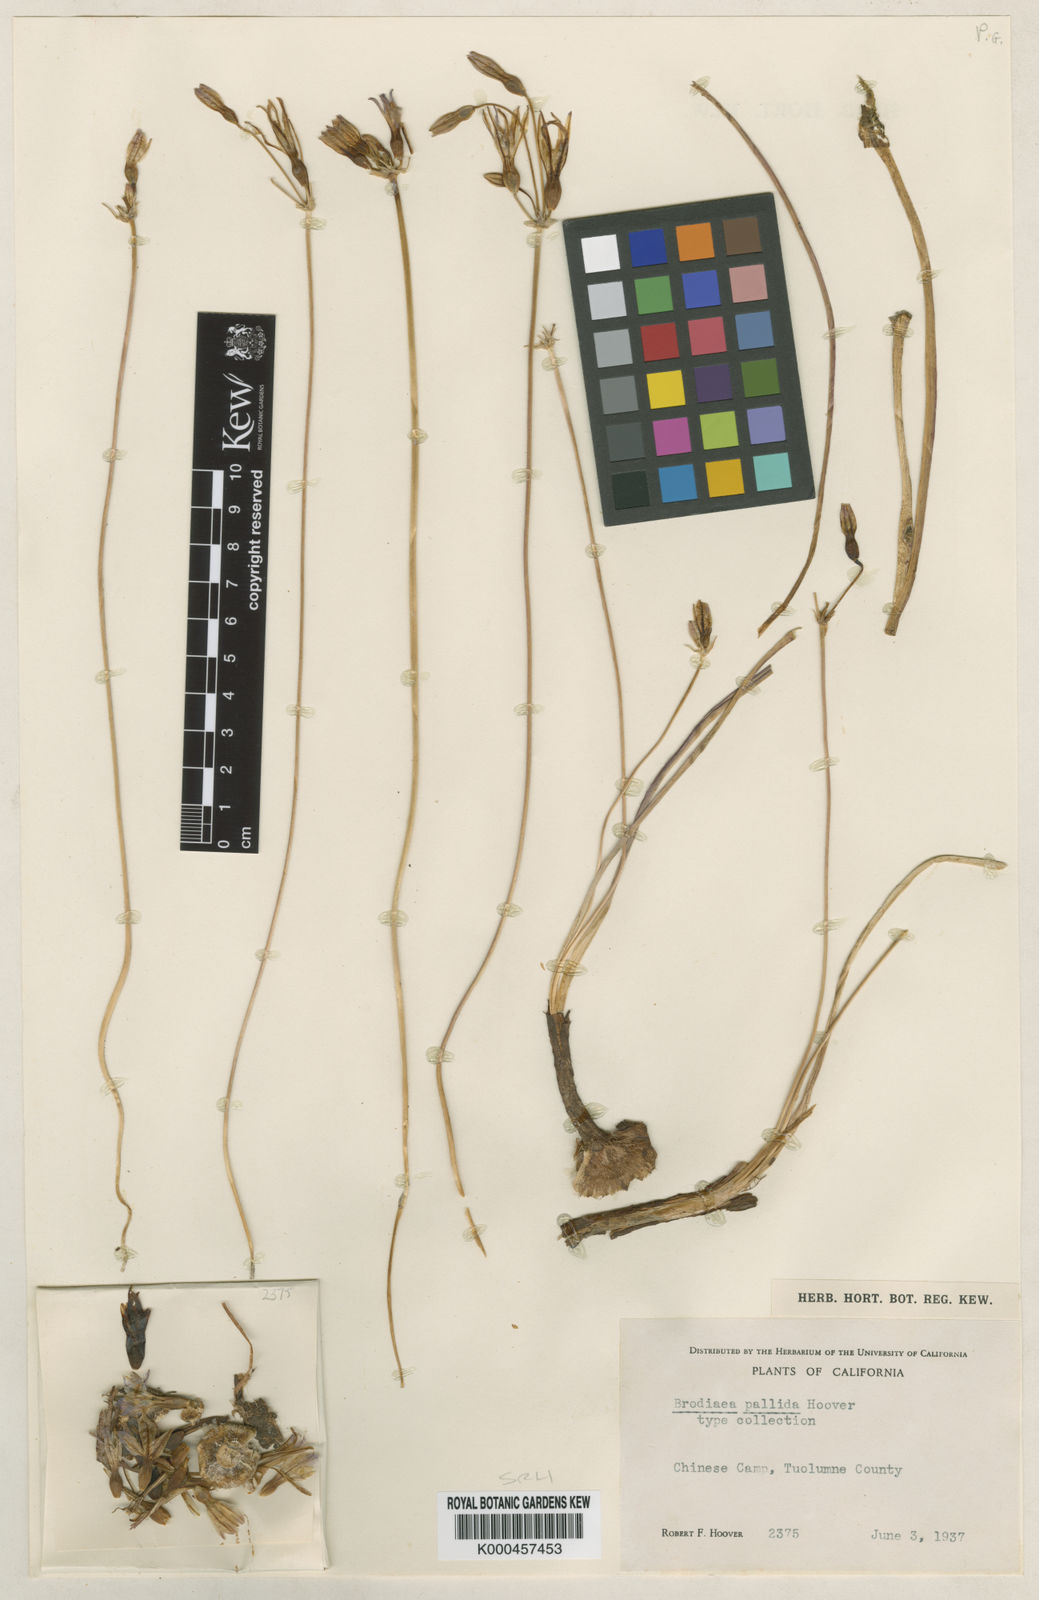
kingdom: Plantae
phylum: Tracheophyta
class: Liliopsida
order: Asparagales
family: Asparagaceae
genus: Brodiaea
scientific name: Brodiaea pallida
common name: Chinese camp brodiaea
